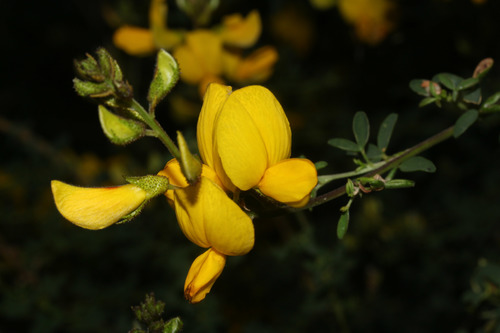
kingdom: Plantae
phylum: Tracheophyta
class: Magnoliopsida
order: Fabales
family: Fabaceae
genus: Adenocarpus
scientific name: Adenocarpus hispanicus
